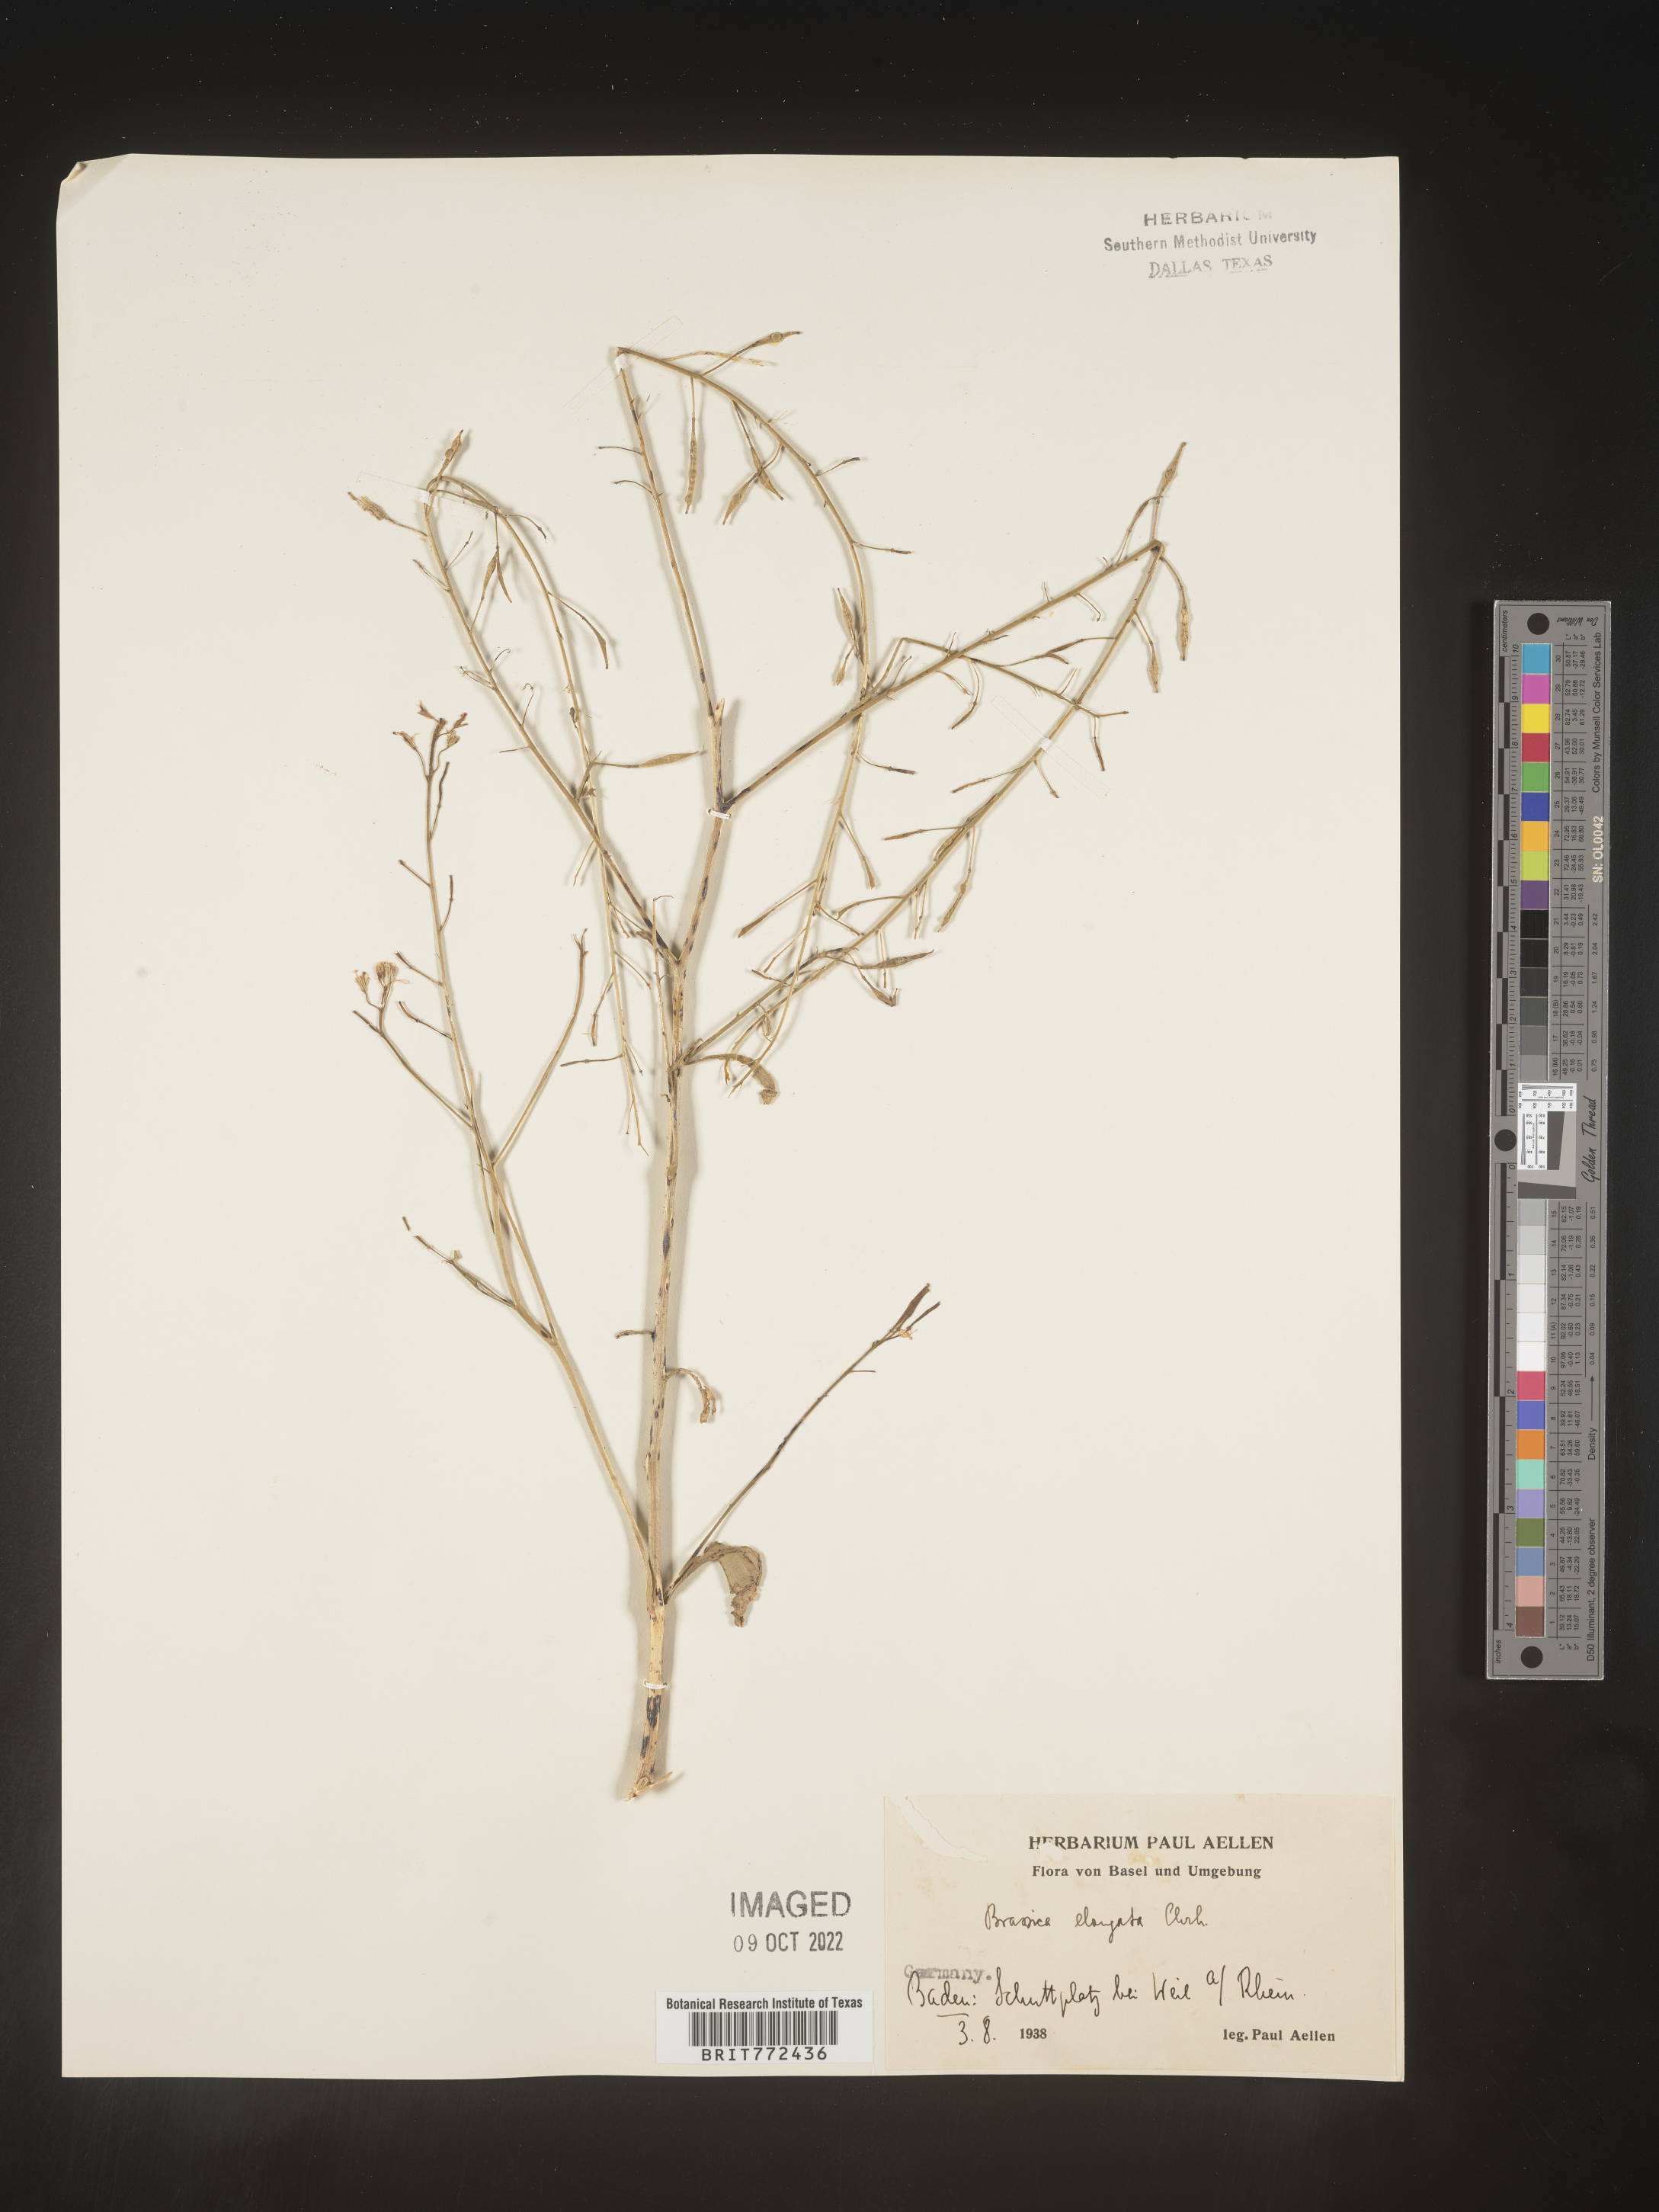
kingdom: Plantae
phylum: Tracheophyta
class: Magnoliopsida
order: Brassicales
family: Brassicaceae
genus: Brassica
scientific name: Brassica
